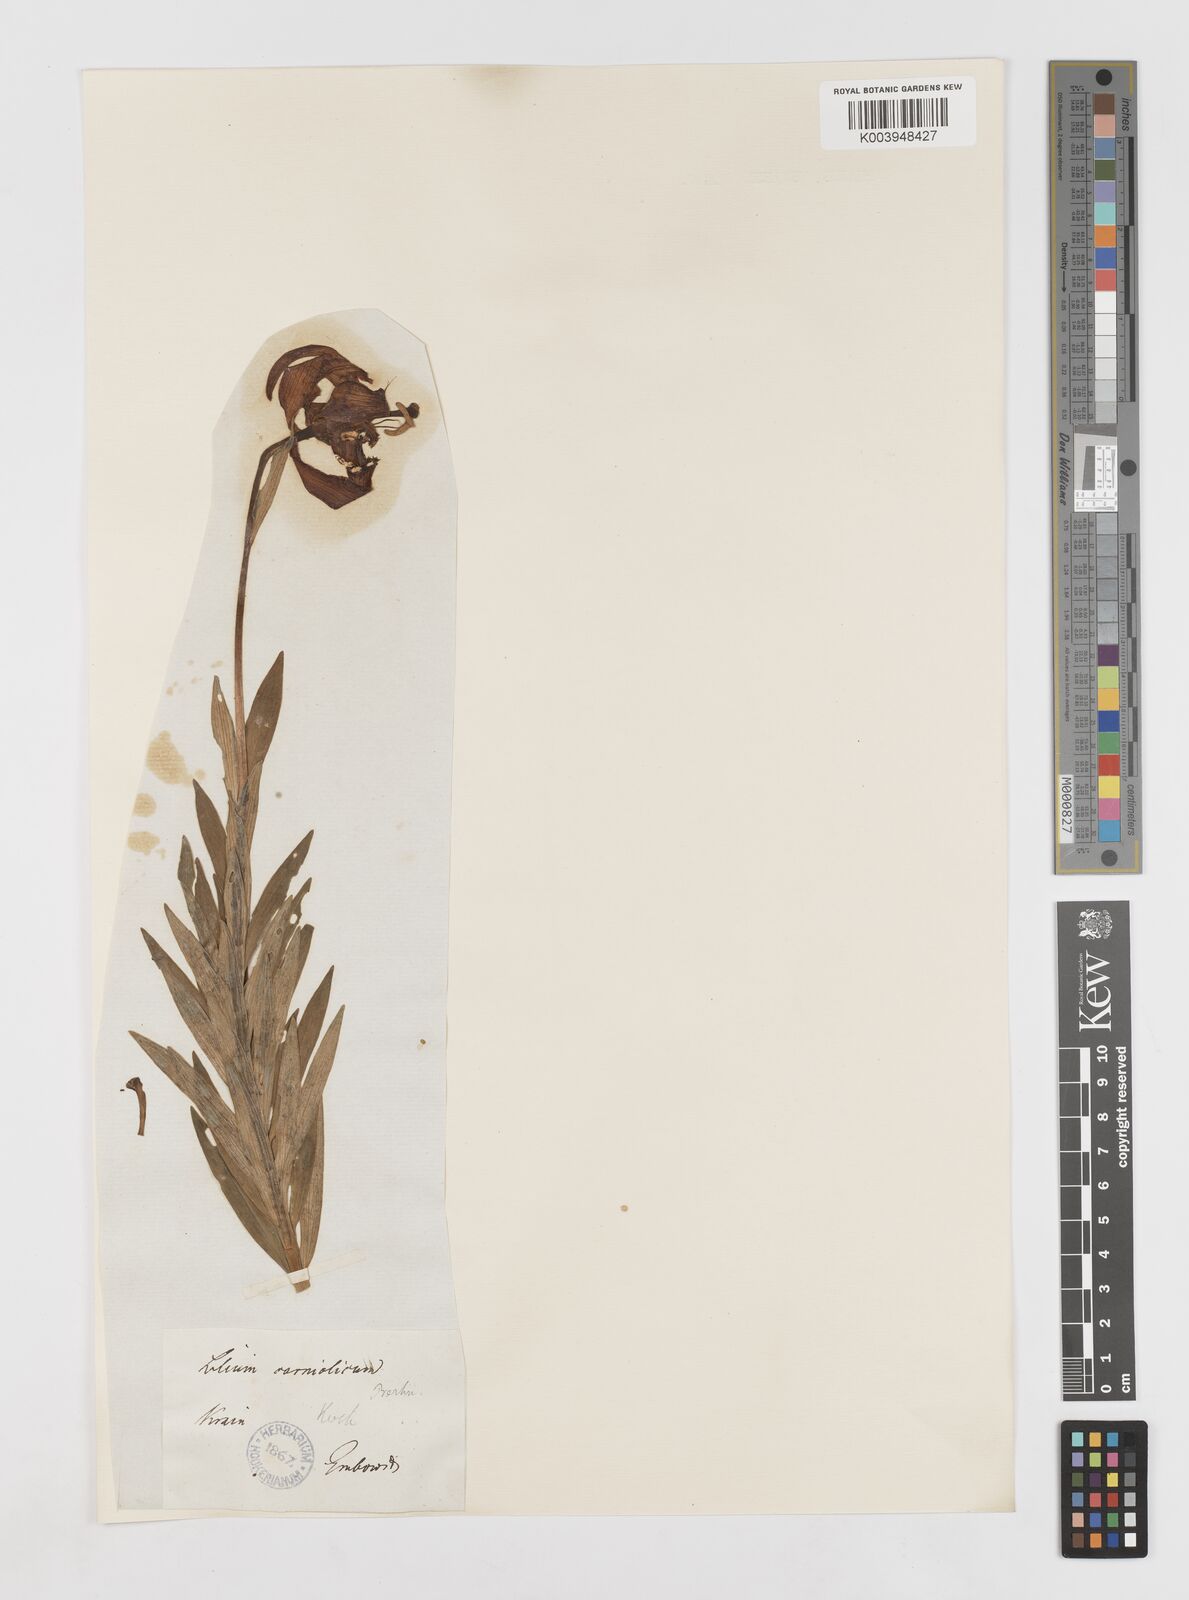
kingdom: Plantae
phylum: Tracheophyta
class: Liliopsida
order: Liliales
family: Liliaceae
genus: Lilium
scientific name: Lilium carniolicum
